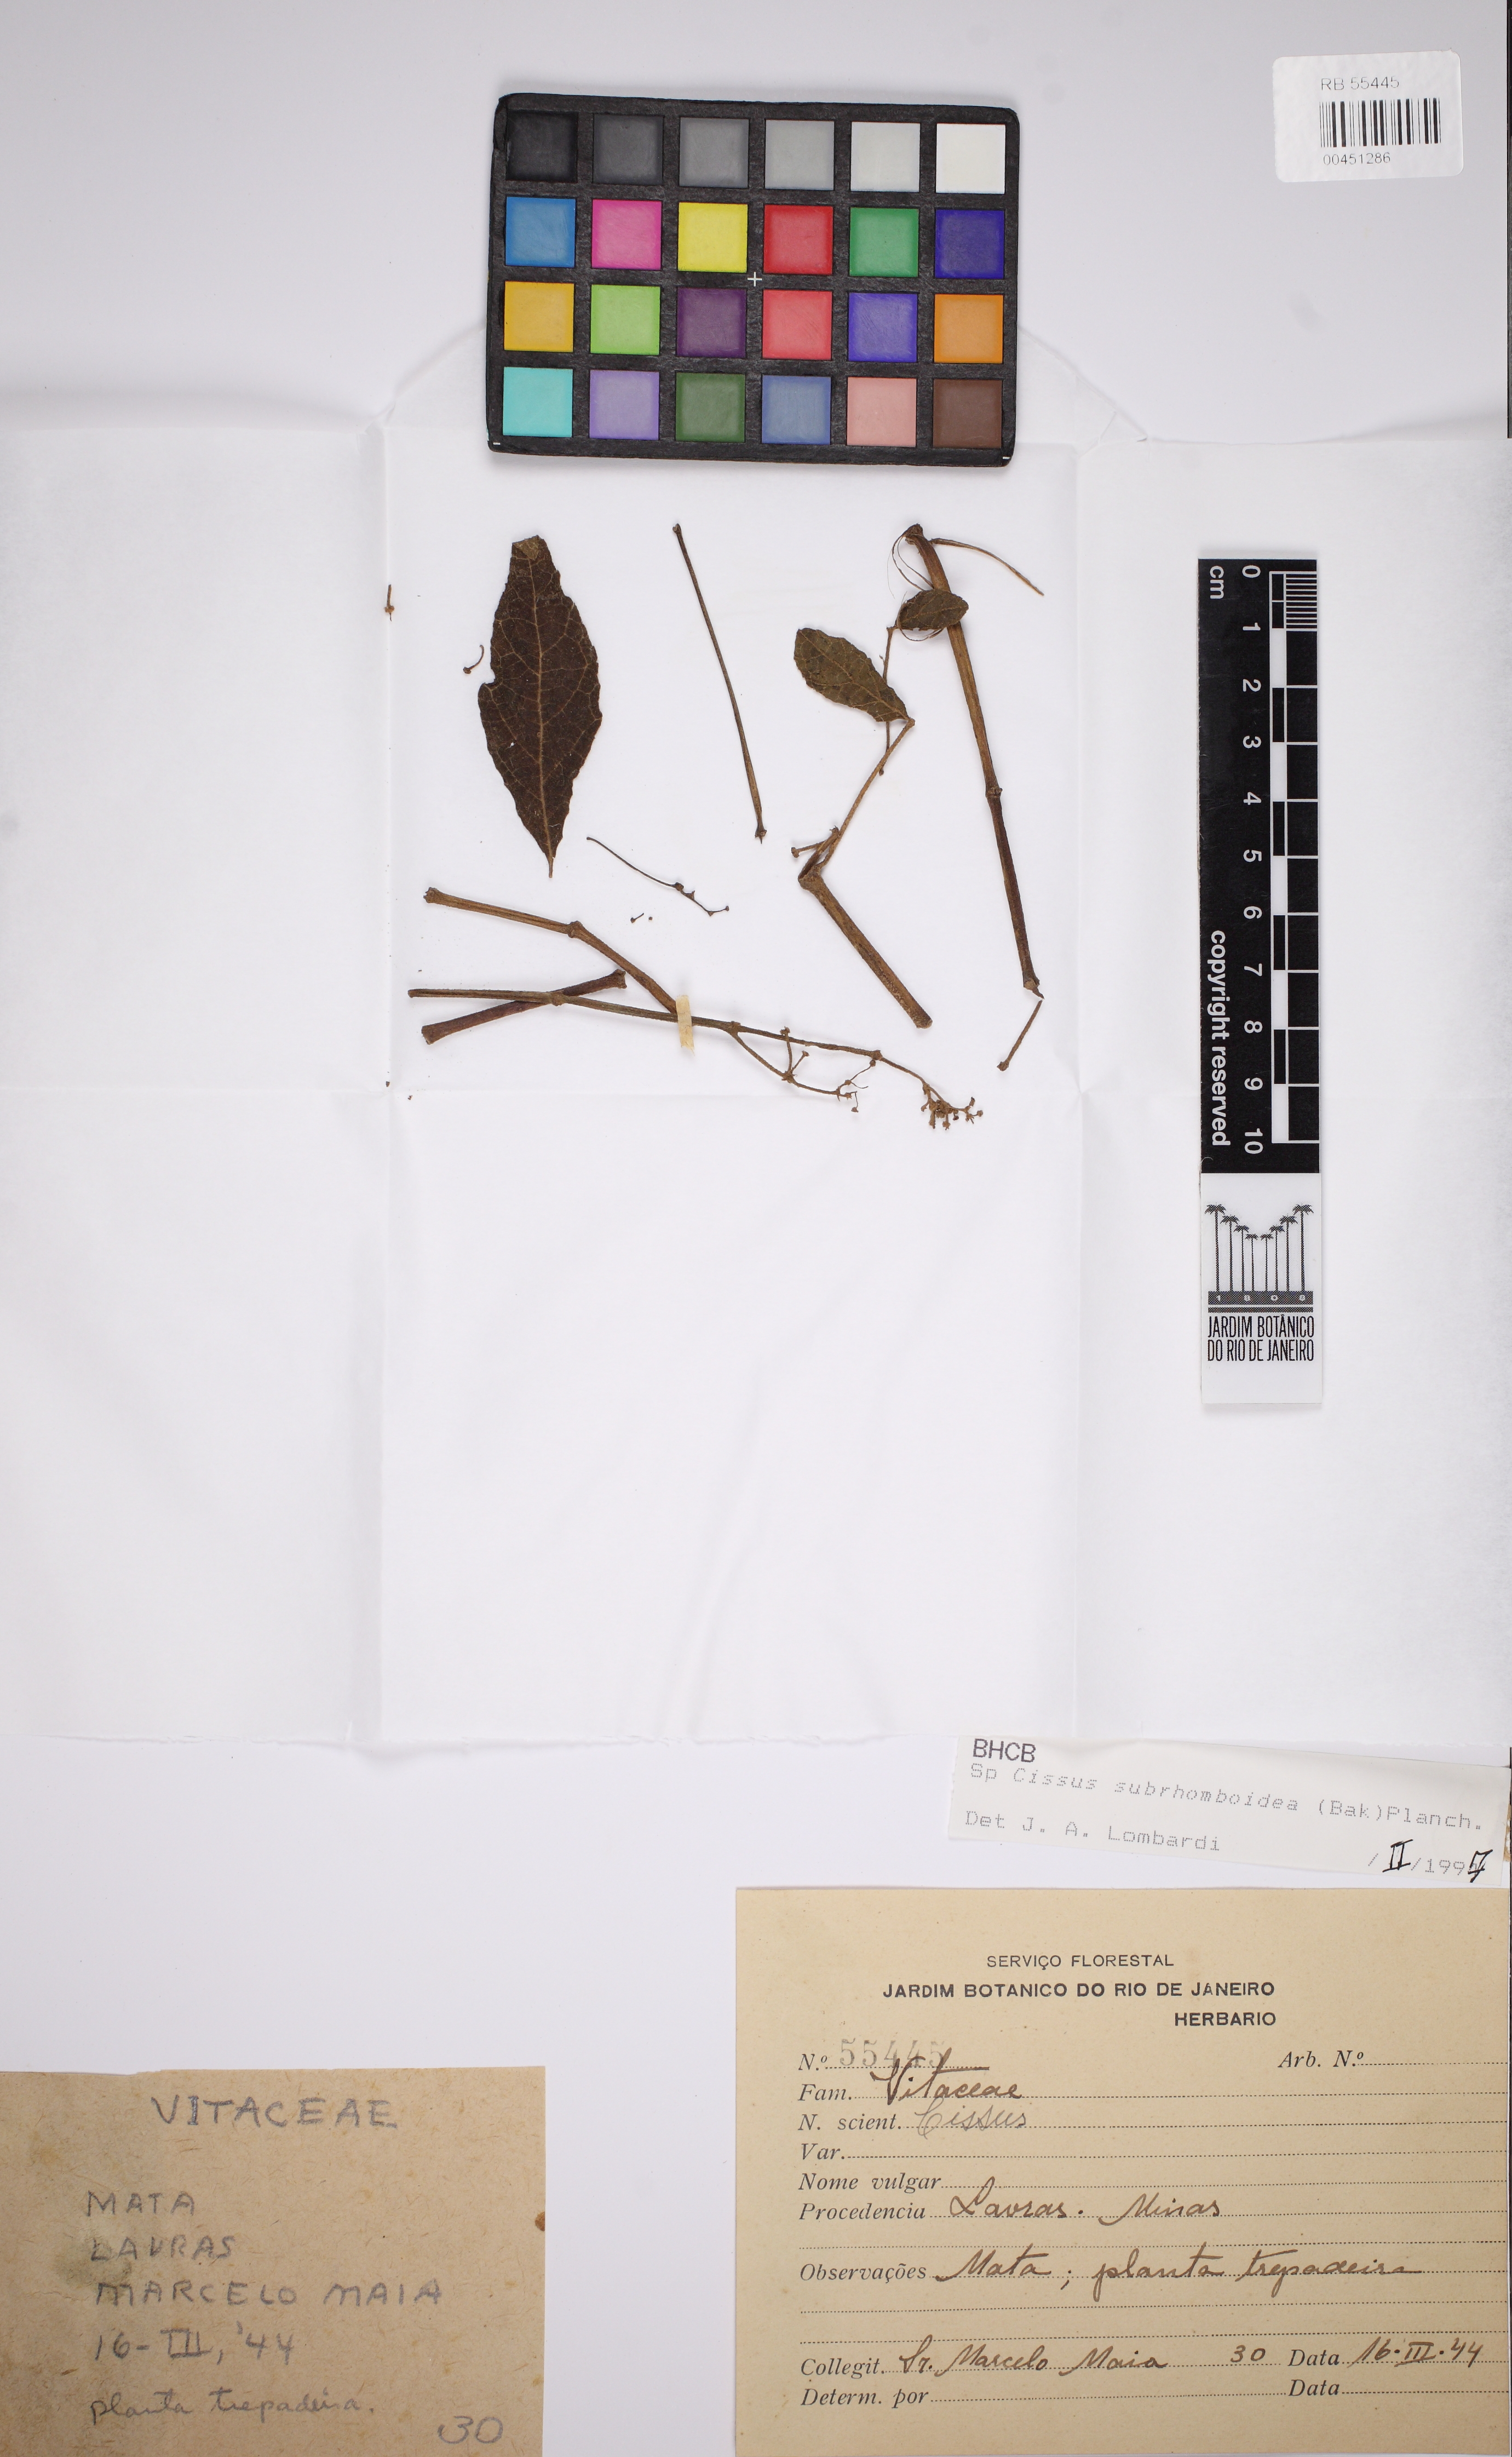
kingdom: Plantae
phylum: Tracheophyta
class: Magnoliopsida
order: Vitales
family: Vitaceae
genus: Cissus
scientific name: Cissus subrhomboidea
